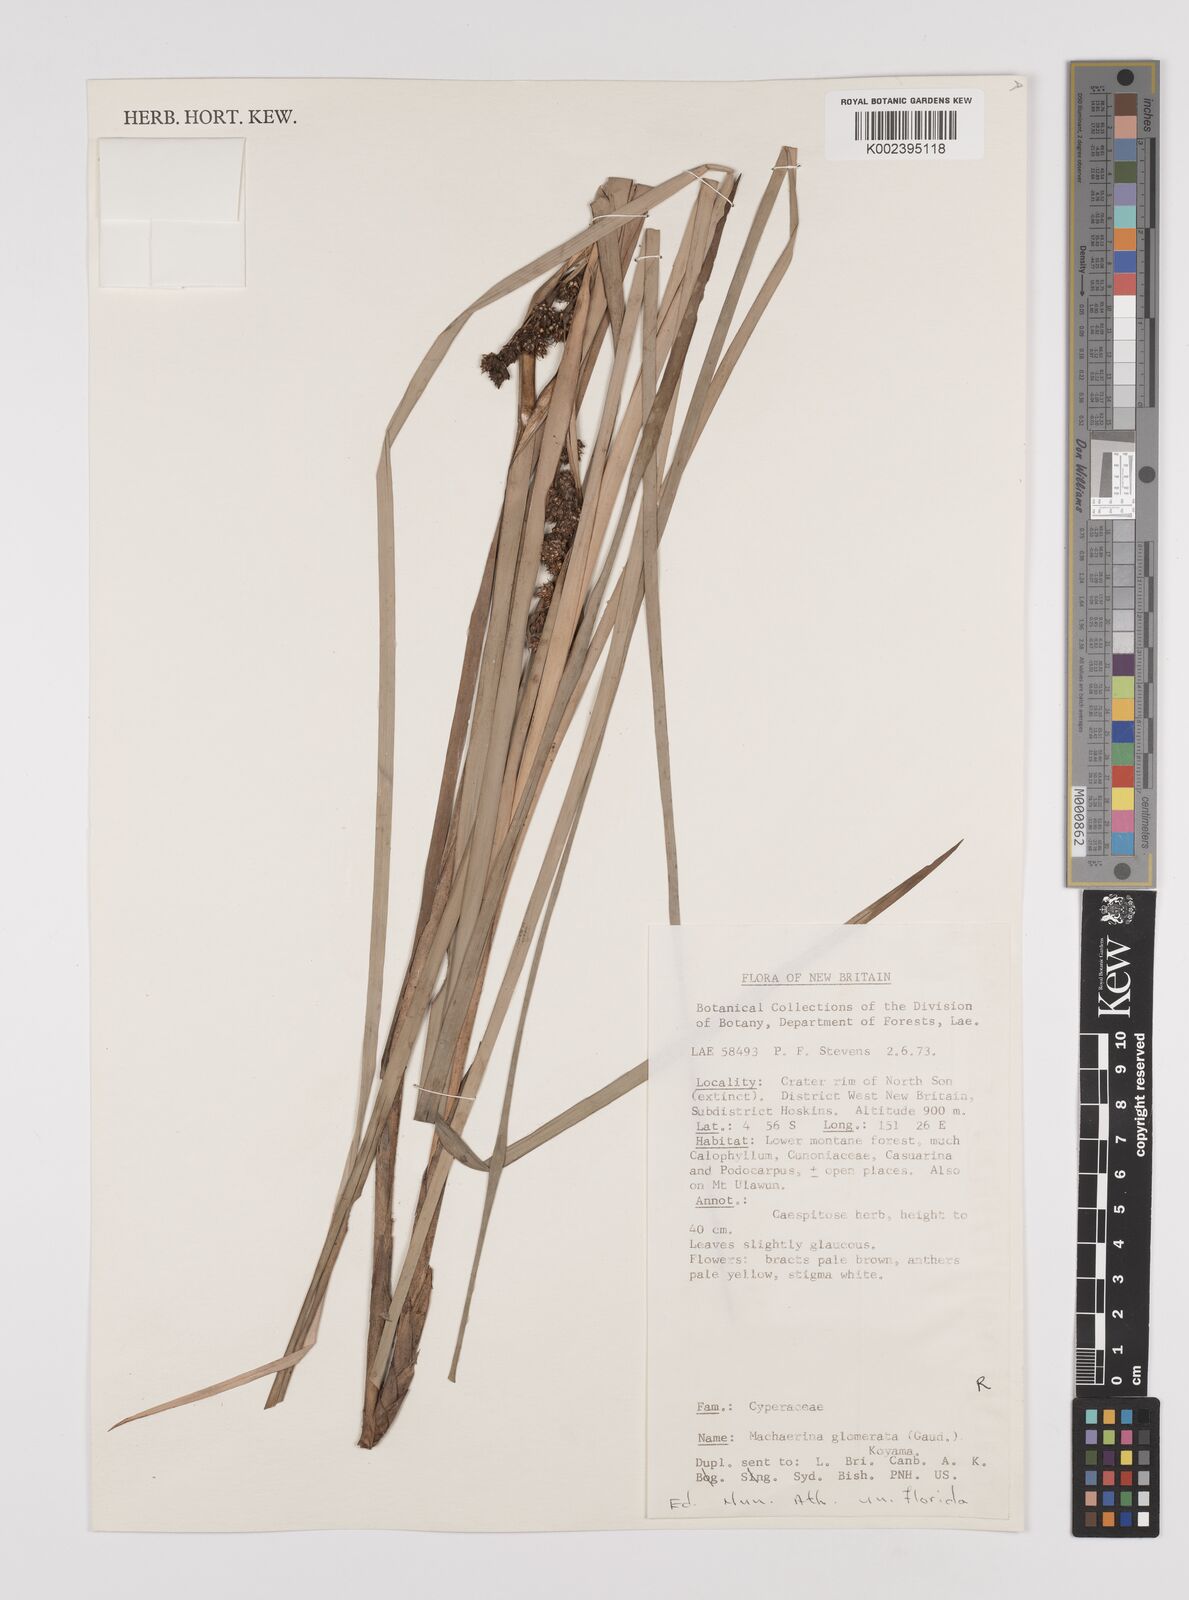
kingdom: Plantae
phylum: Tracheophyta
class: Liliopsida
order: Poales
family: Cyperaceae
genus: Machaerina
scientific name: Machaerina glomerata
